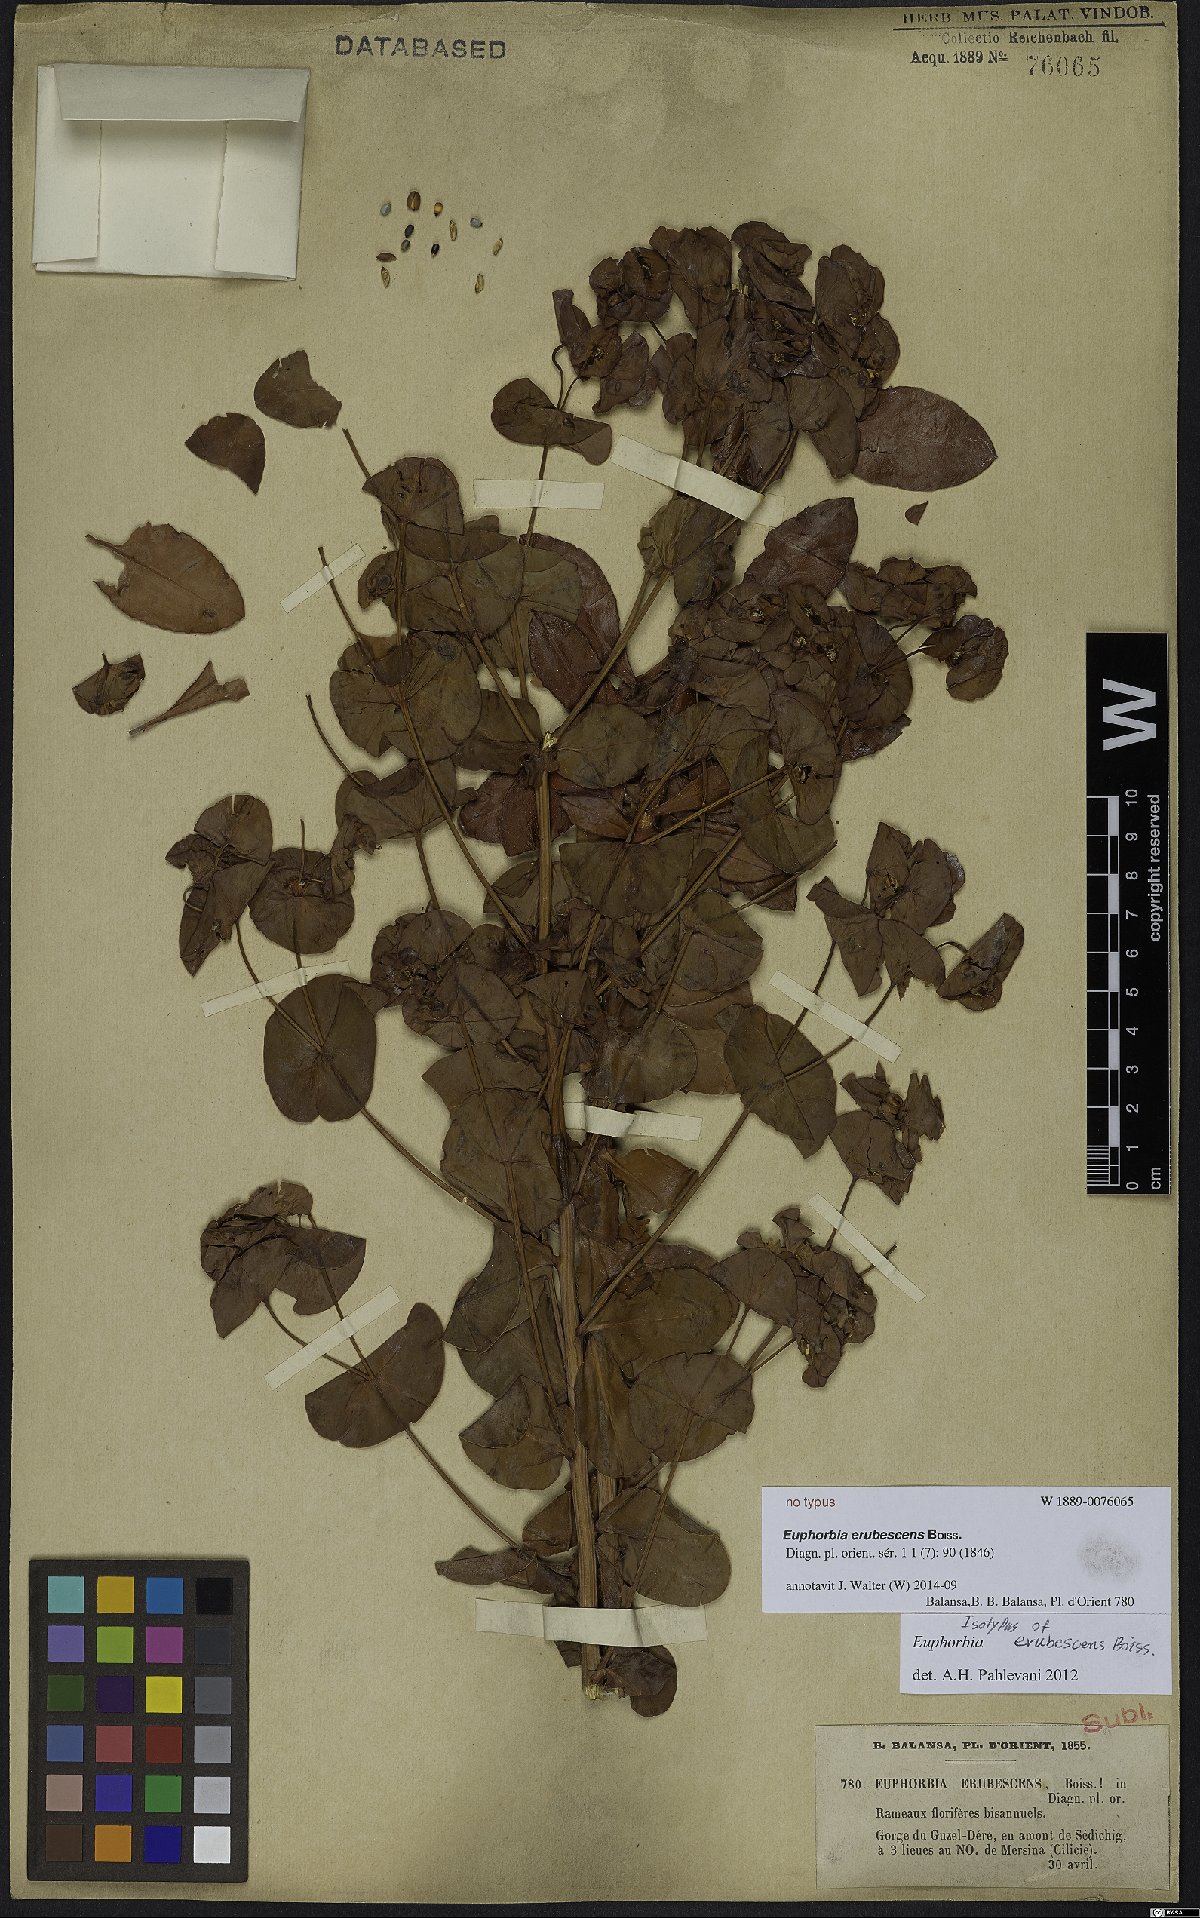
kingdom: Plantae
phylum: Tracheophyta
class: Magnoliopsida
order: Malpighiales
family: Euphorbiaceae
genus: Euphorbia
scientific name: Euphorbia erubescens
